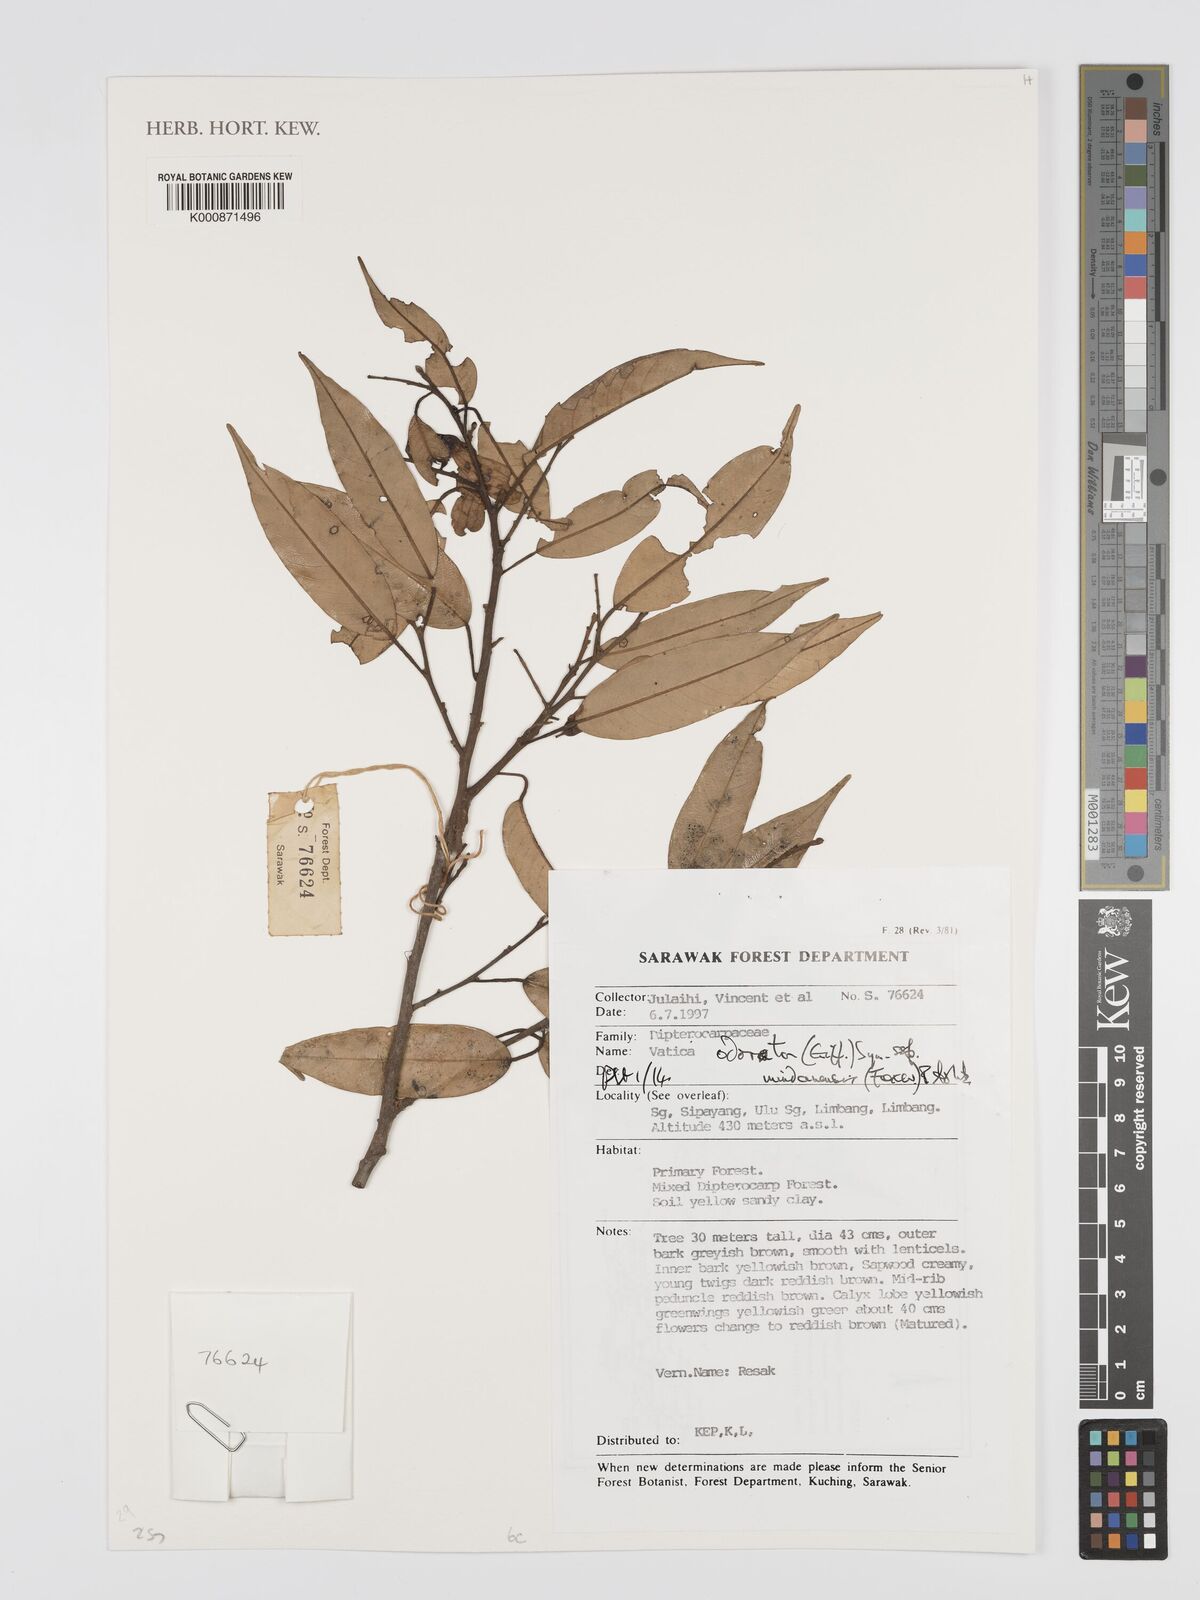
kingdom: Plantae
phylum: Tracheophyta
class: Magnoliopsida
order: Malvales
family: Dipterocarpaceae
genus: Vatica
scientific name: Vatica odorata
